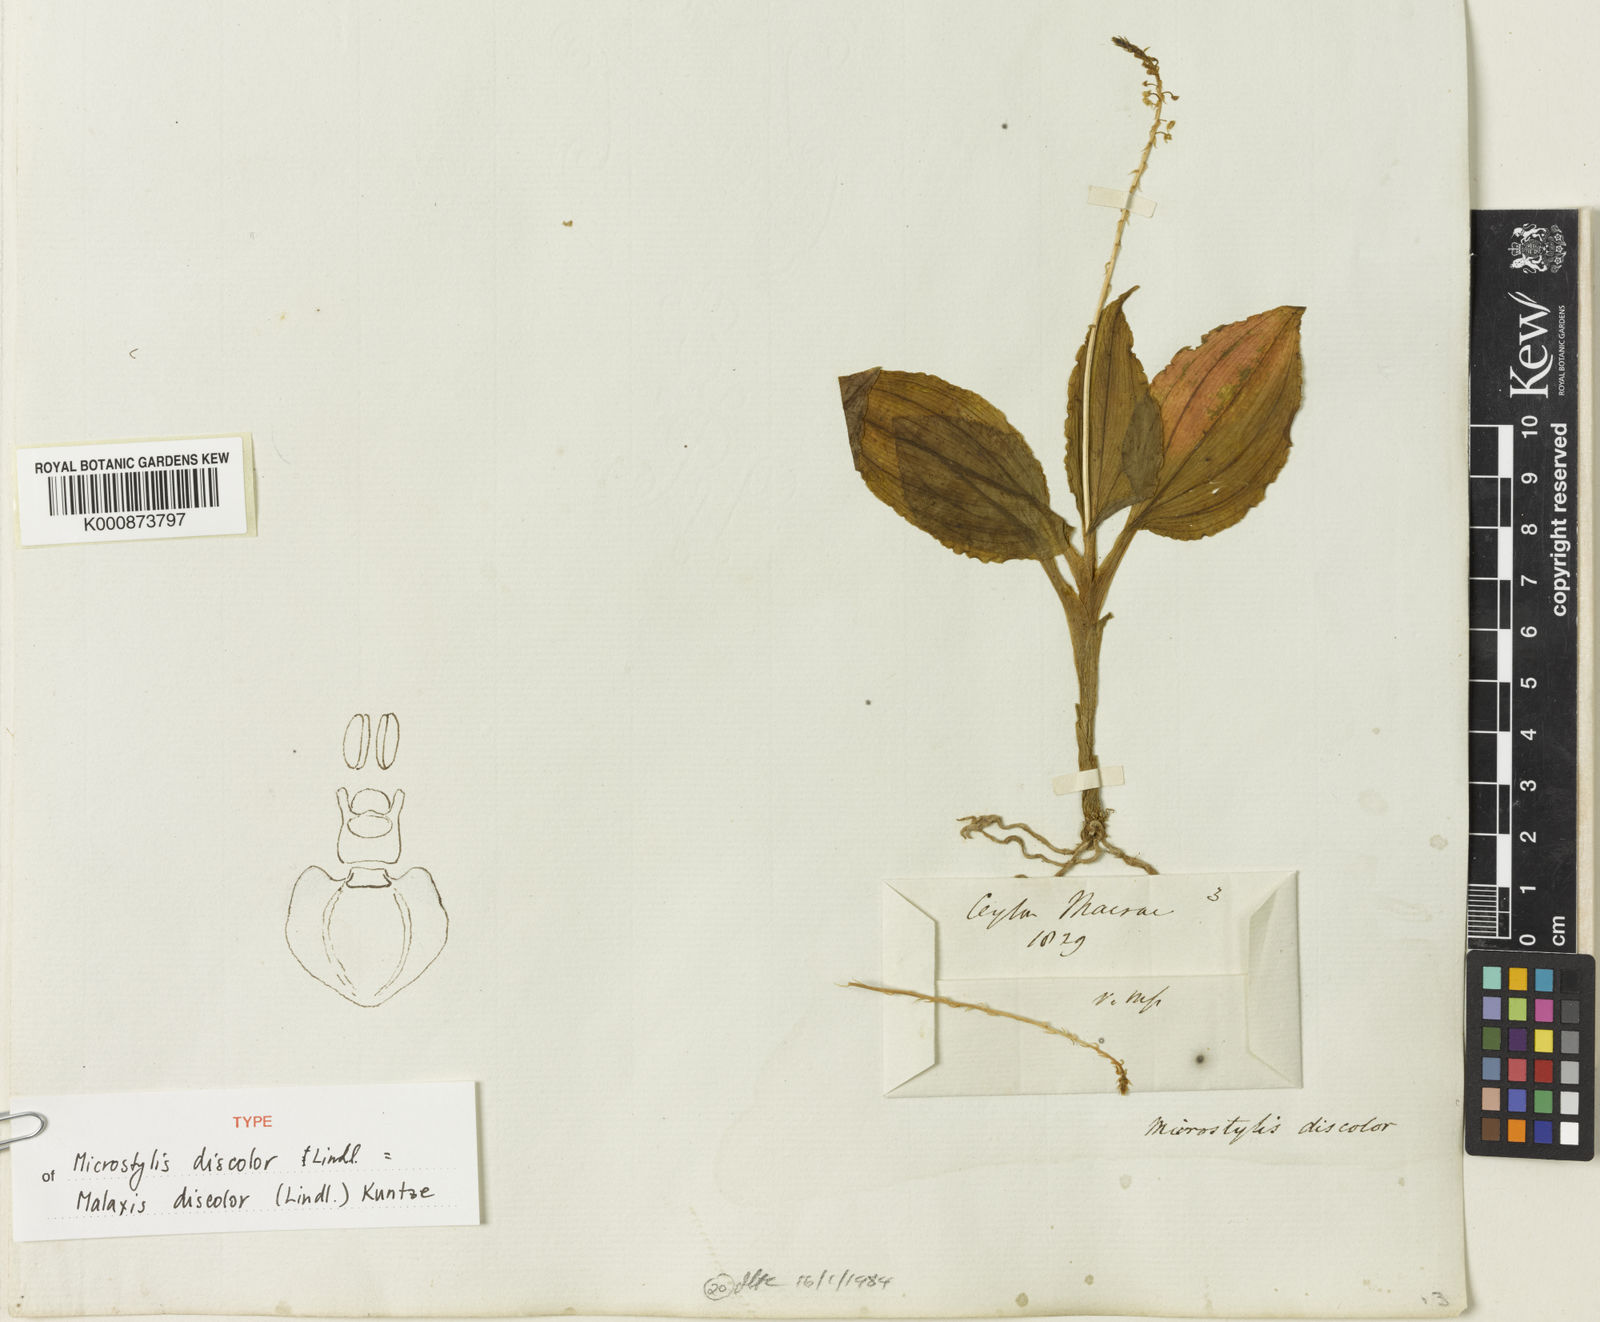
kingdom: Plantae
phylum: Tracheophyta
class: Liliopsida
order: Asparagales
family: Orchidaceae
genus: Malaxis
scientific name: Malaxis discolor
